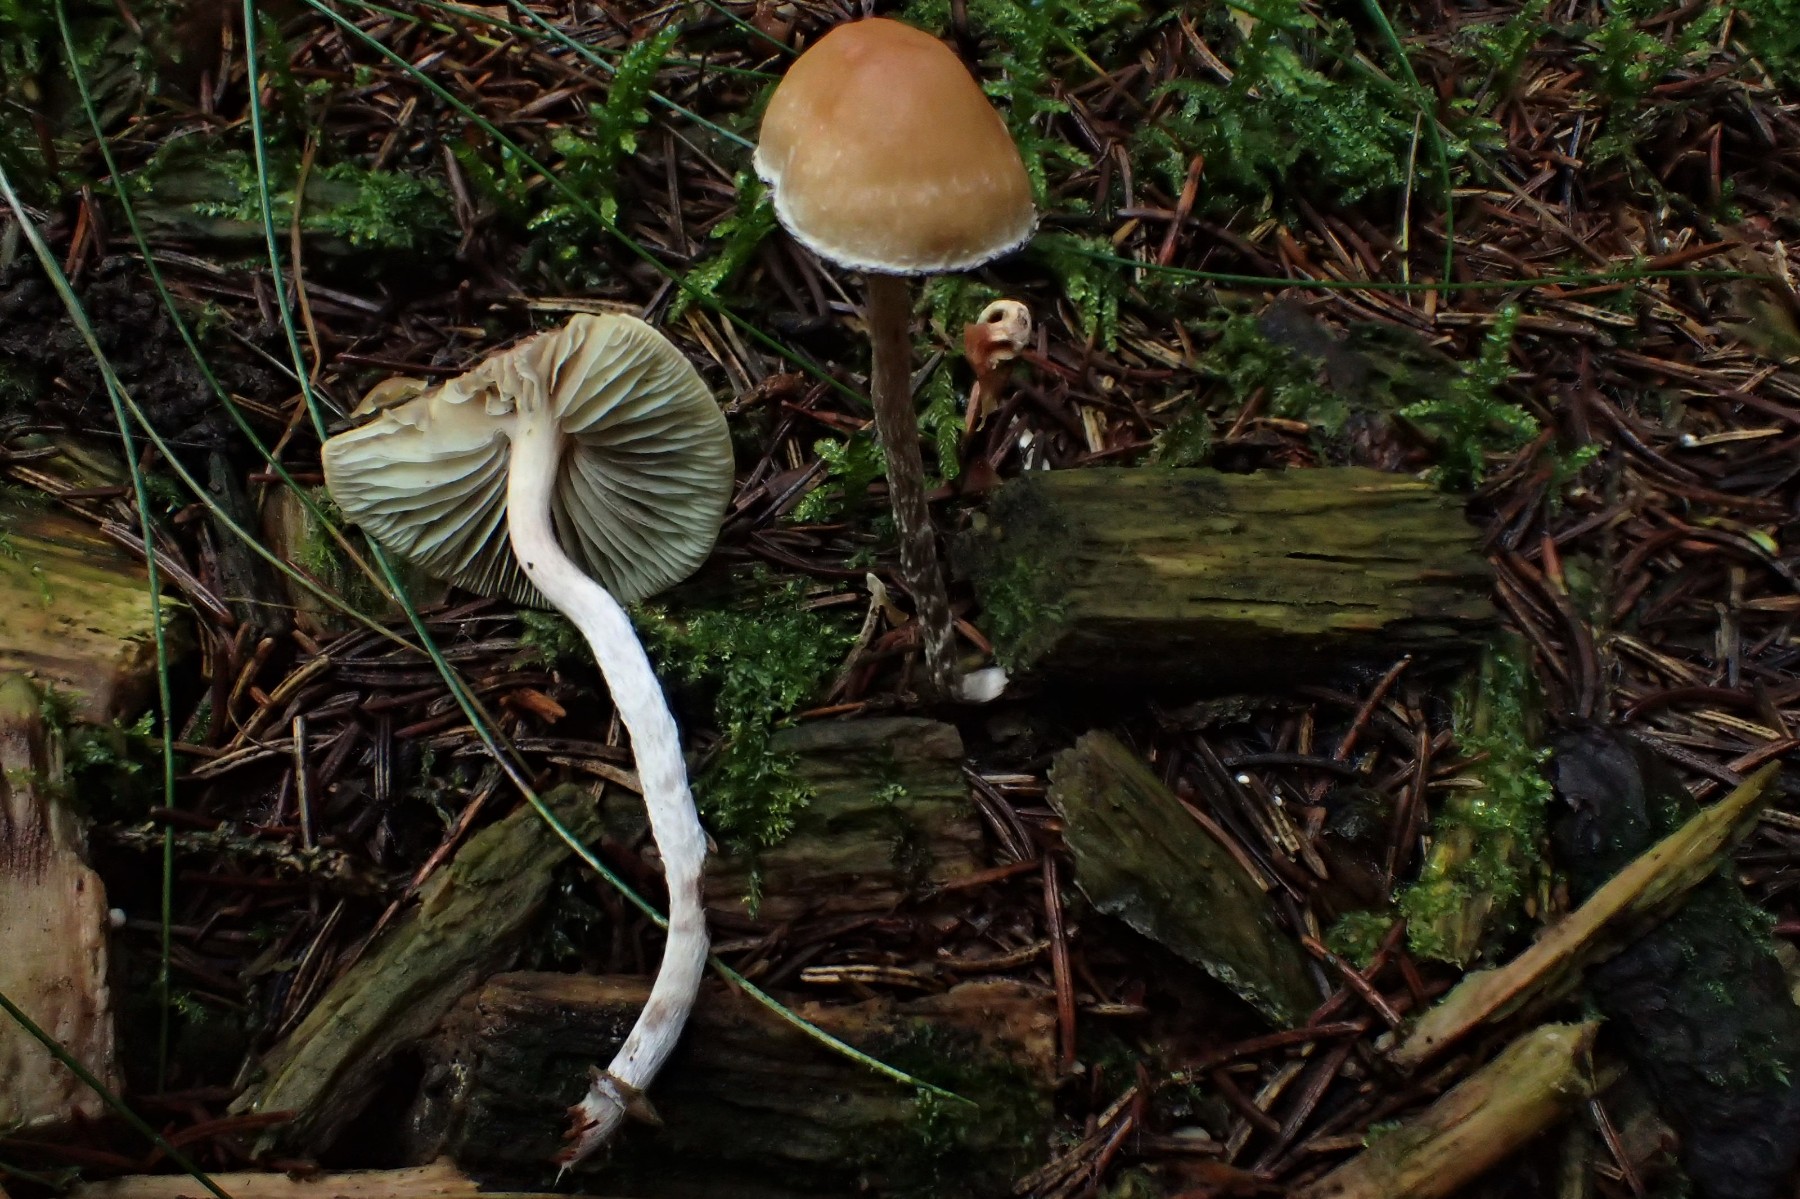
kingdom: Fungi
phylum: Basidiomycota
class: Agaricomycetes
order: Agaricales
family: Strophariaceae
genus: Hypholoma
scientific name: Hypholoma marginatum
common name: enlig svovlhat
